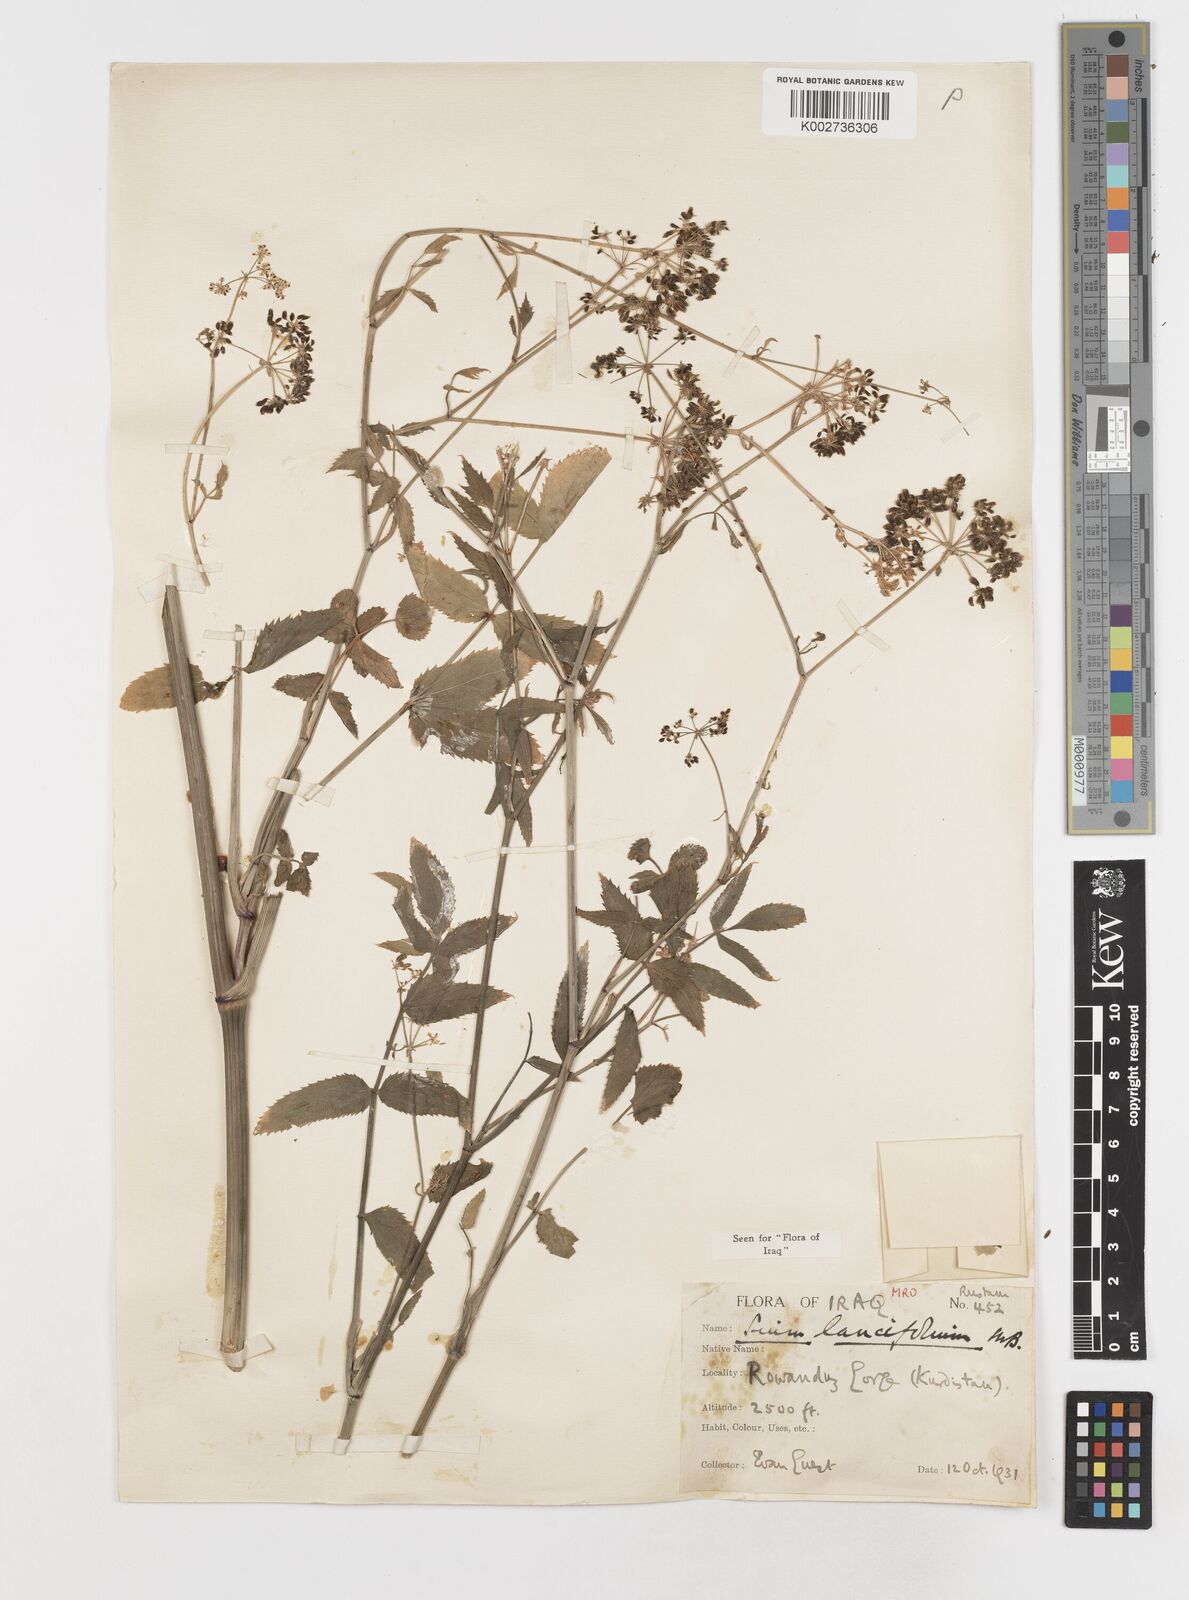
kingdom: Plantae
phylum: Tracheophyta
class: Magnoliopsida
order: Apiales
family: Apiaceae
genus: Sium
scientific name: Sium sisarum
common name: Skirret
